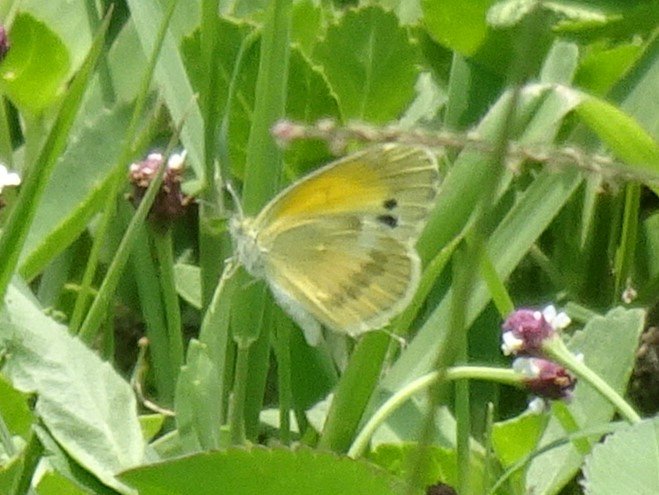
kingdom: Animalia
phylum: Arthropoda
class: Insecta
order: Lepidoptera
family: Pieridae
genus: Nathalis
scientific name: Nathalis iole
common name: Dainty Sulphur
